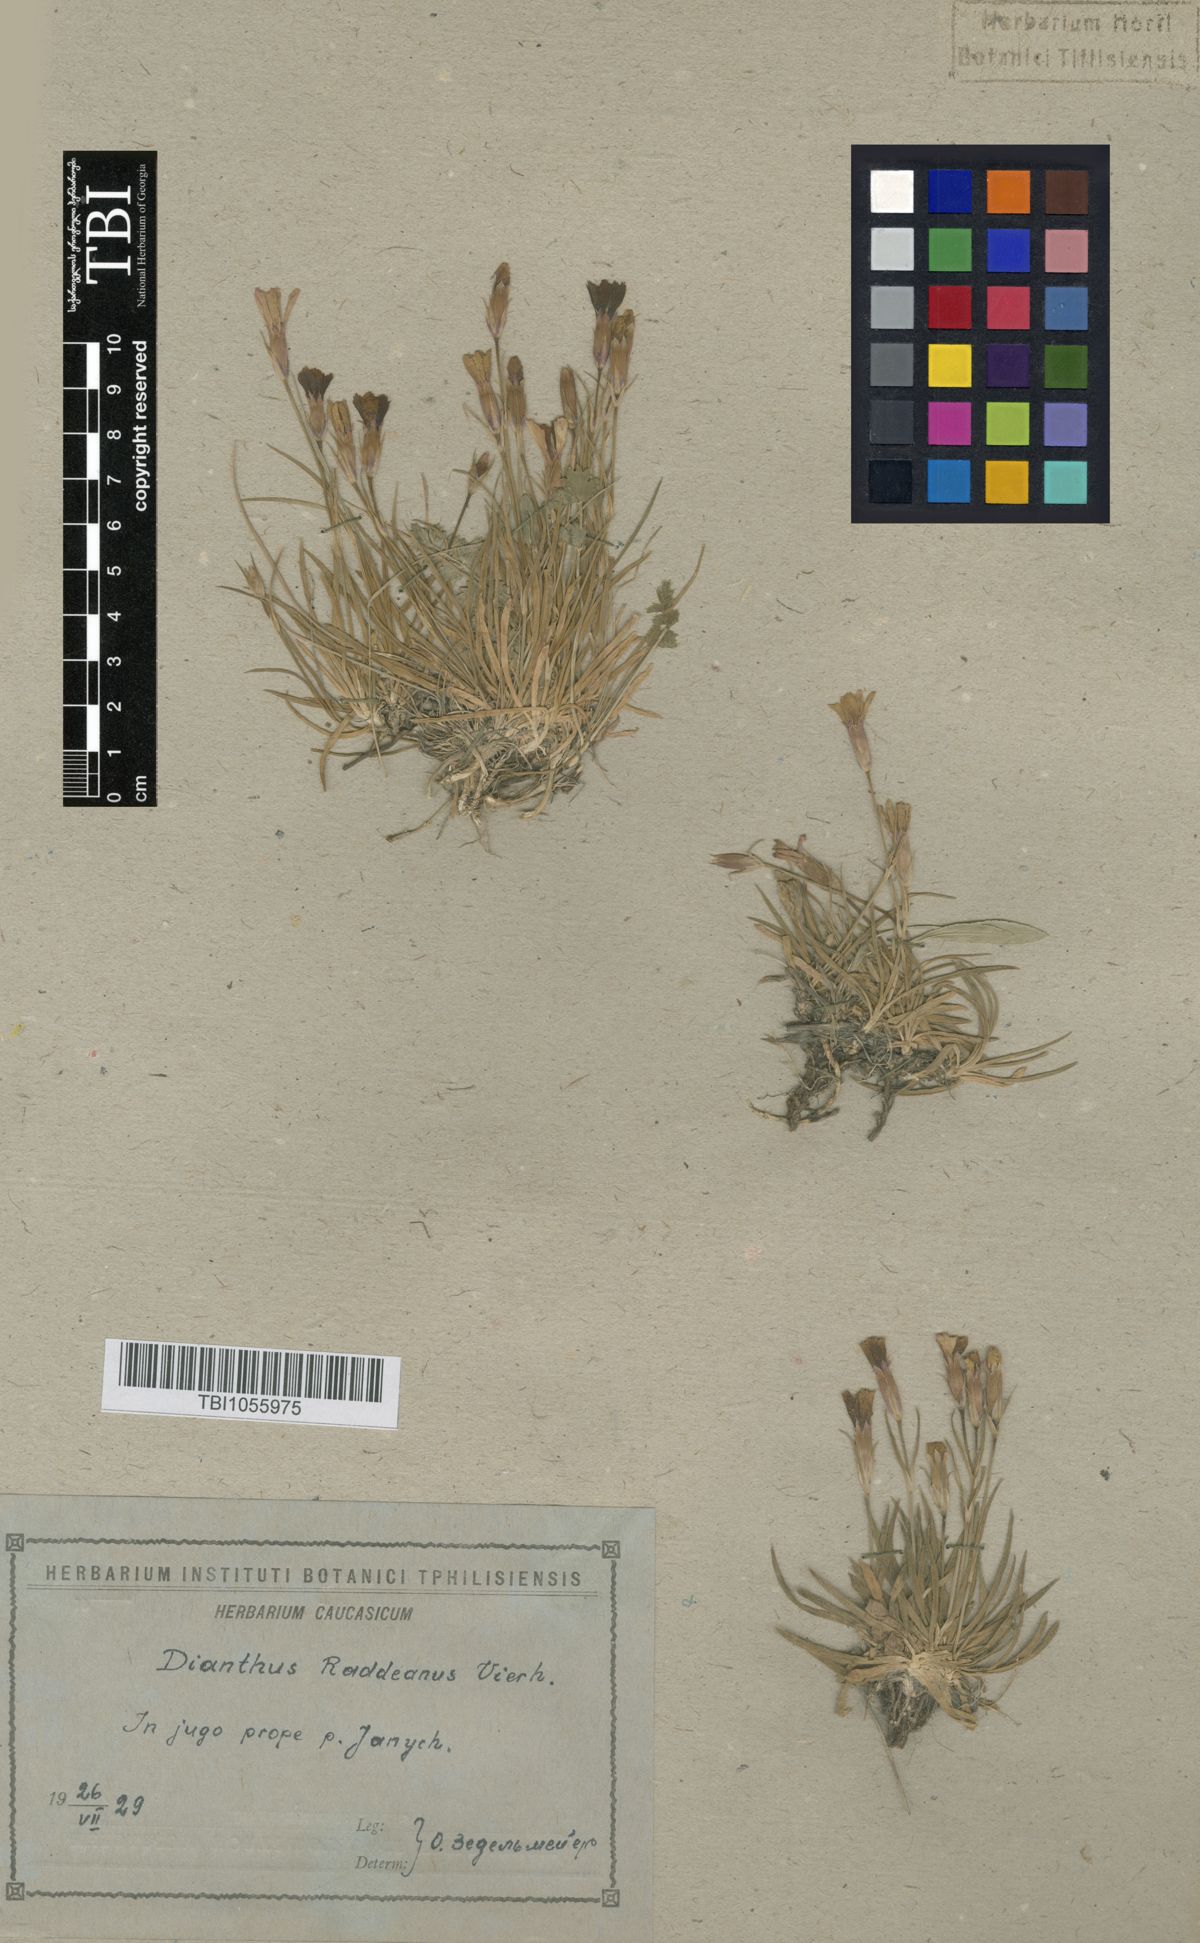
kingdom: Plantae
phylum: Tracheophyta
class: Magnoliopsida
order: Caryophyllales
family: Caryophyllaceae
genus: Dianthus
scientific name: Dianthus raddeanus
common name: Radde's pink
